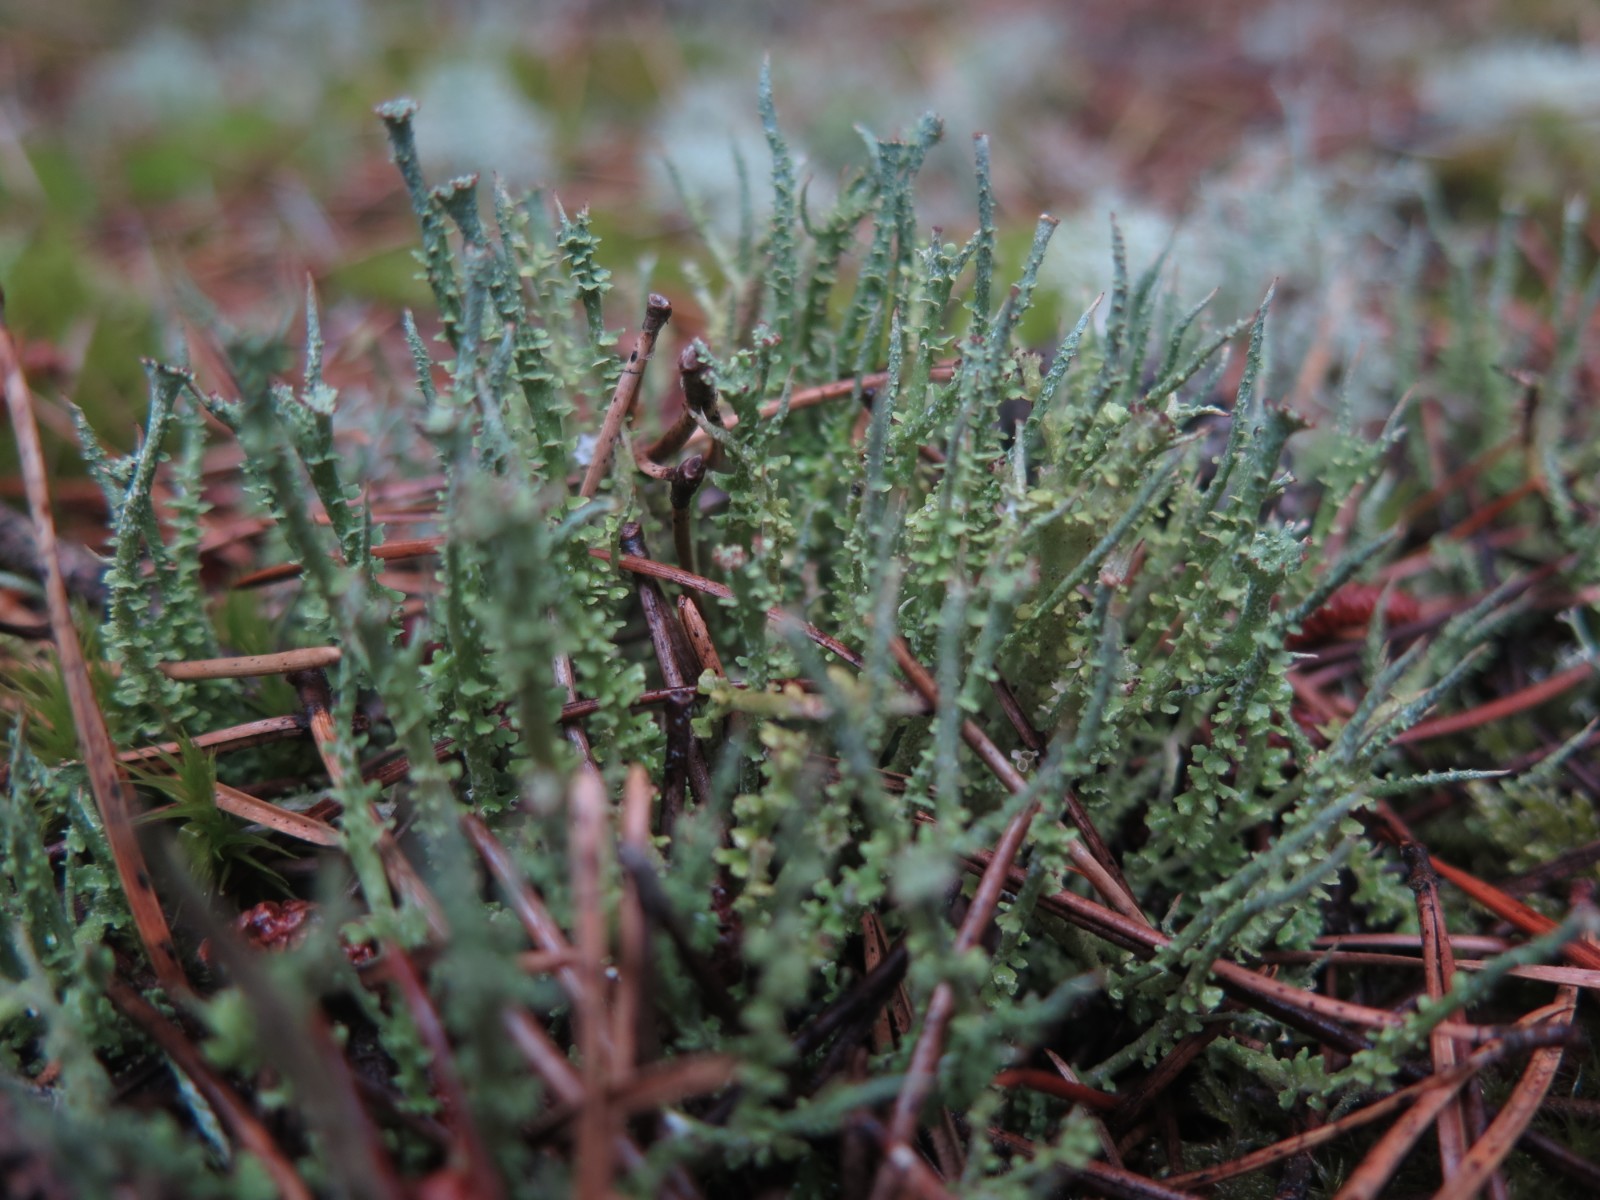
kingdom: Fungi
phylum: Ascomycota
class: Lecanoromycetes
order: Lecanorales
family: Cladoniaceae
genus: Cladonia
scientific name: Cladonia gracilis
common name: slank bægerlav
